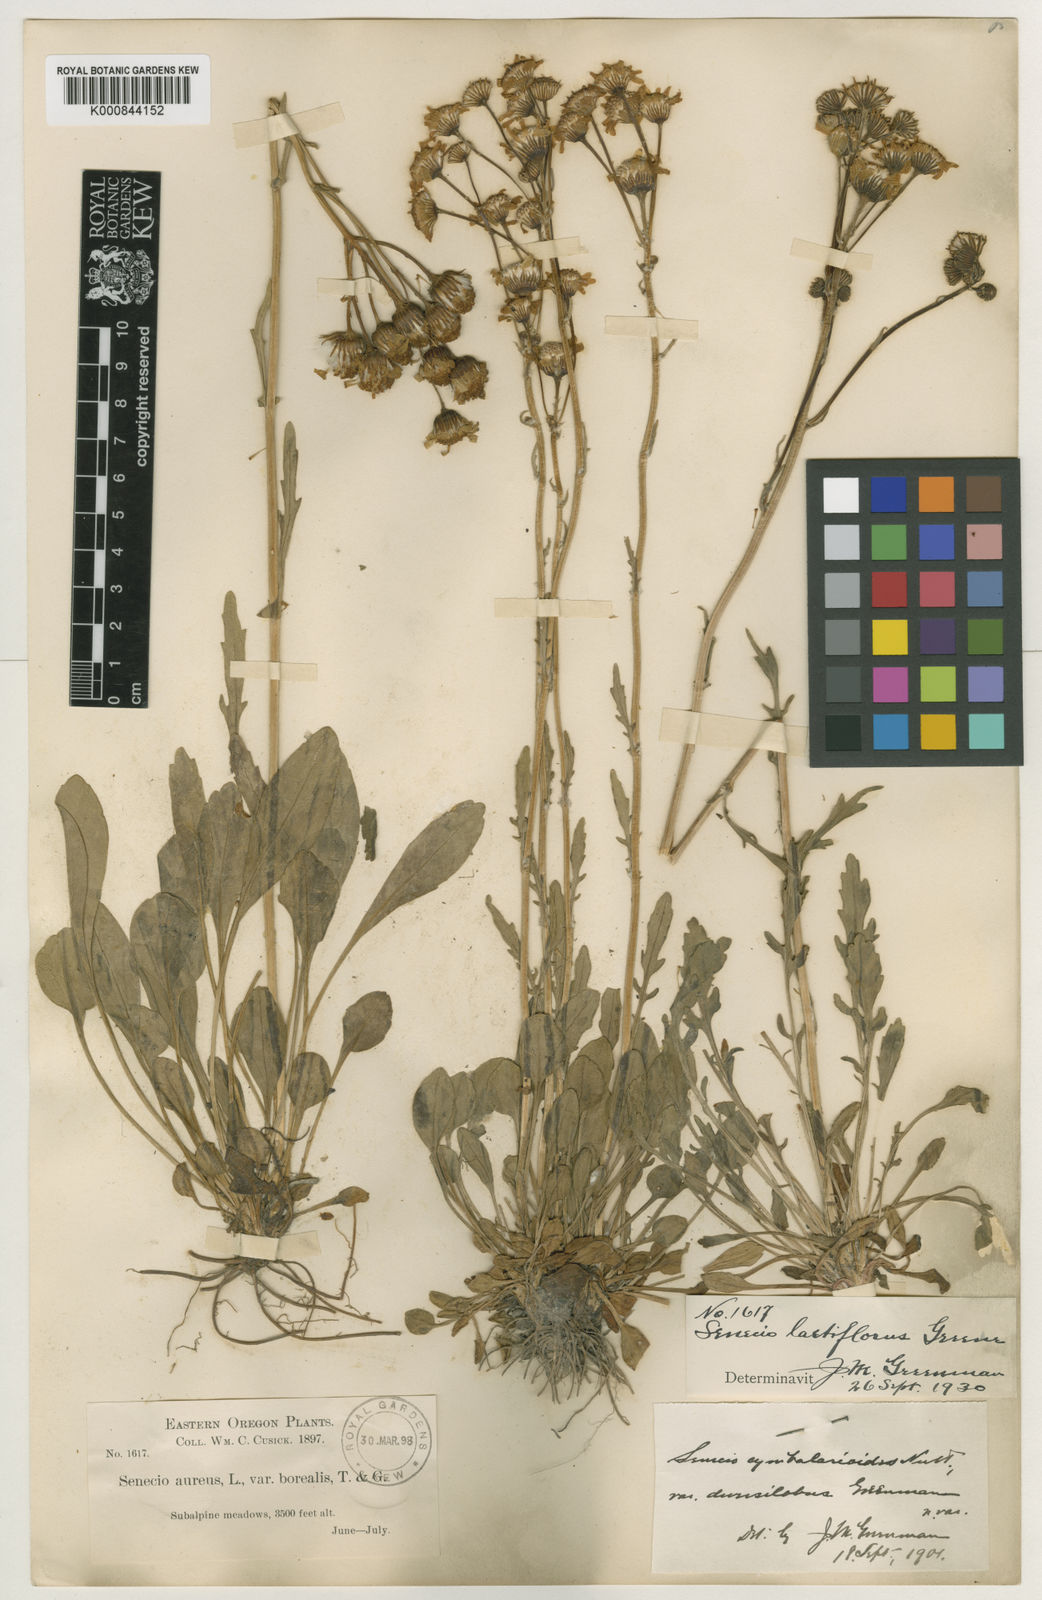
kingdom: Plantae
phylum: Tracheophyta
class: Magnoliopsida
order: Asterales
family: Asteraceae
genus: Packera
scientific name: Packera
